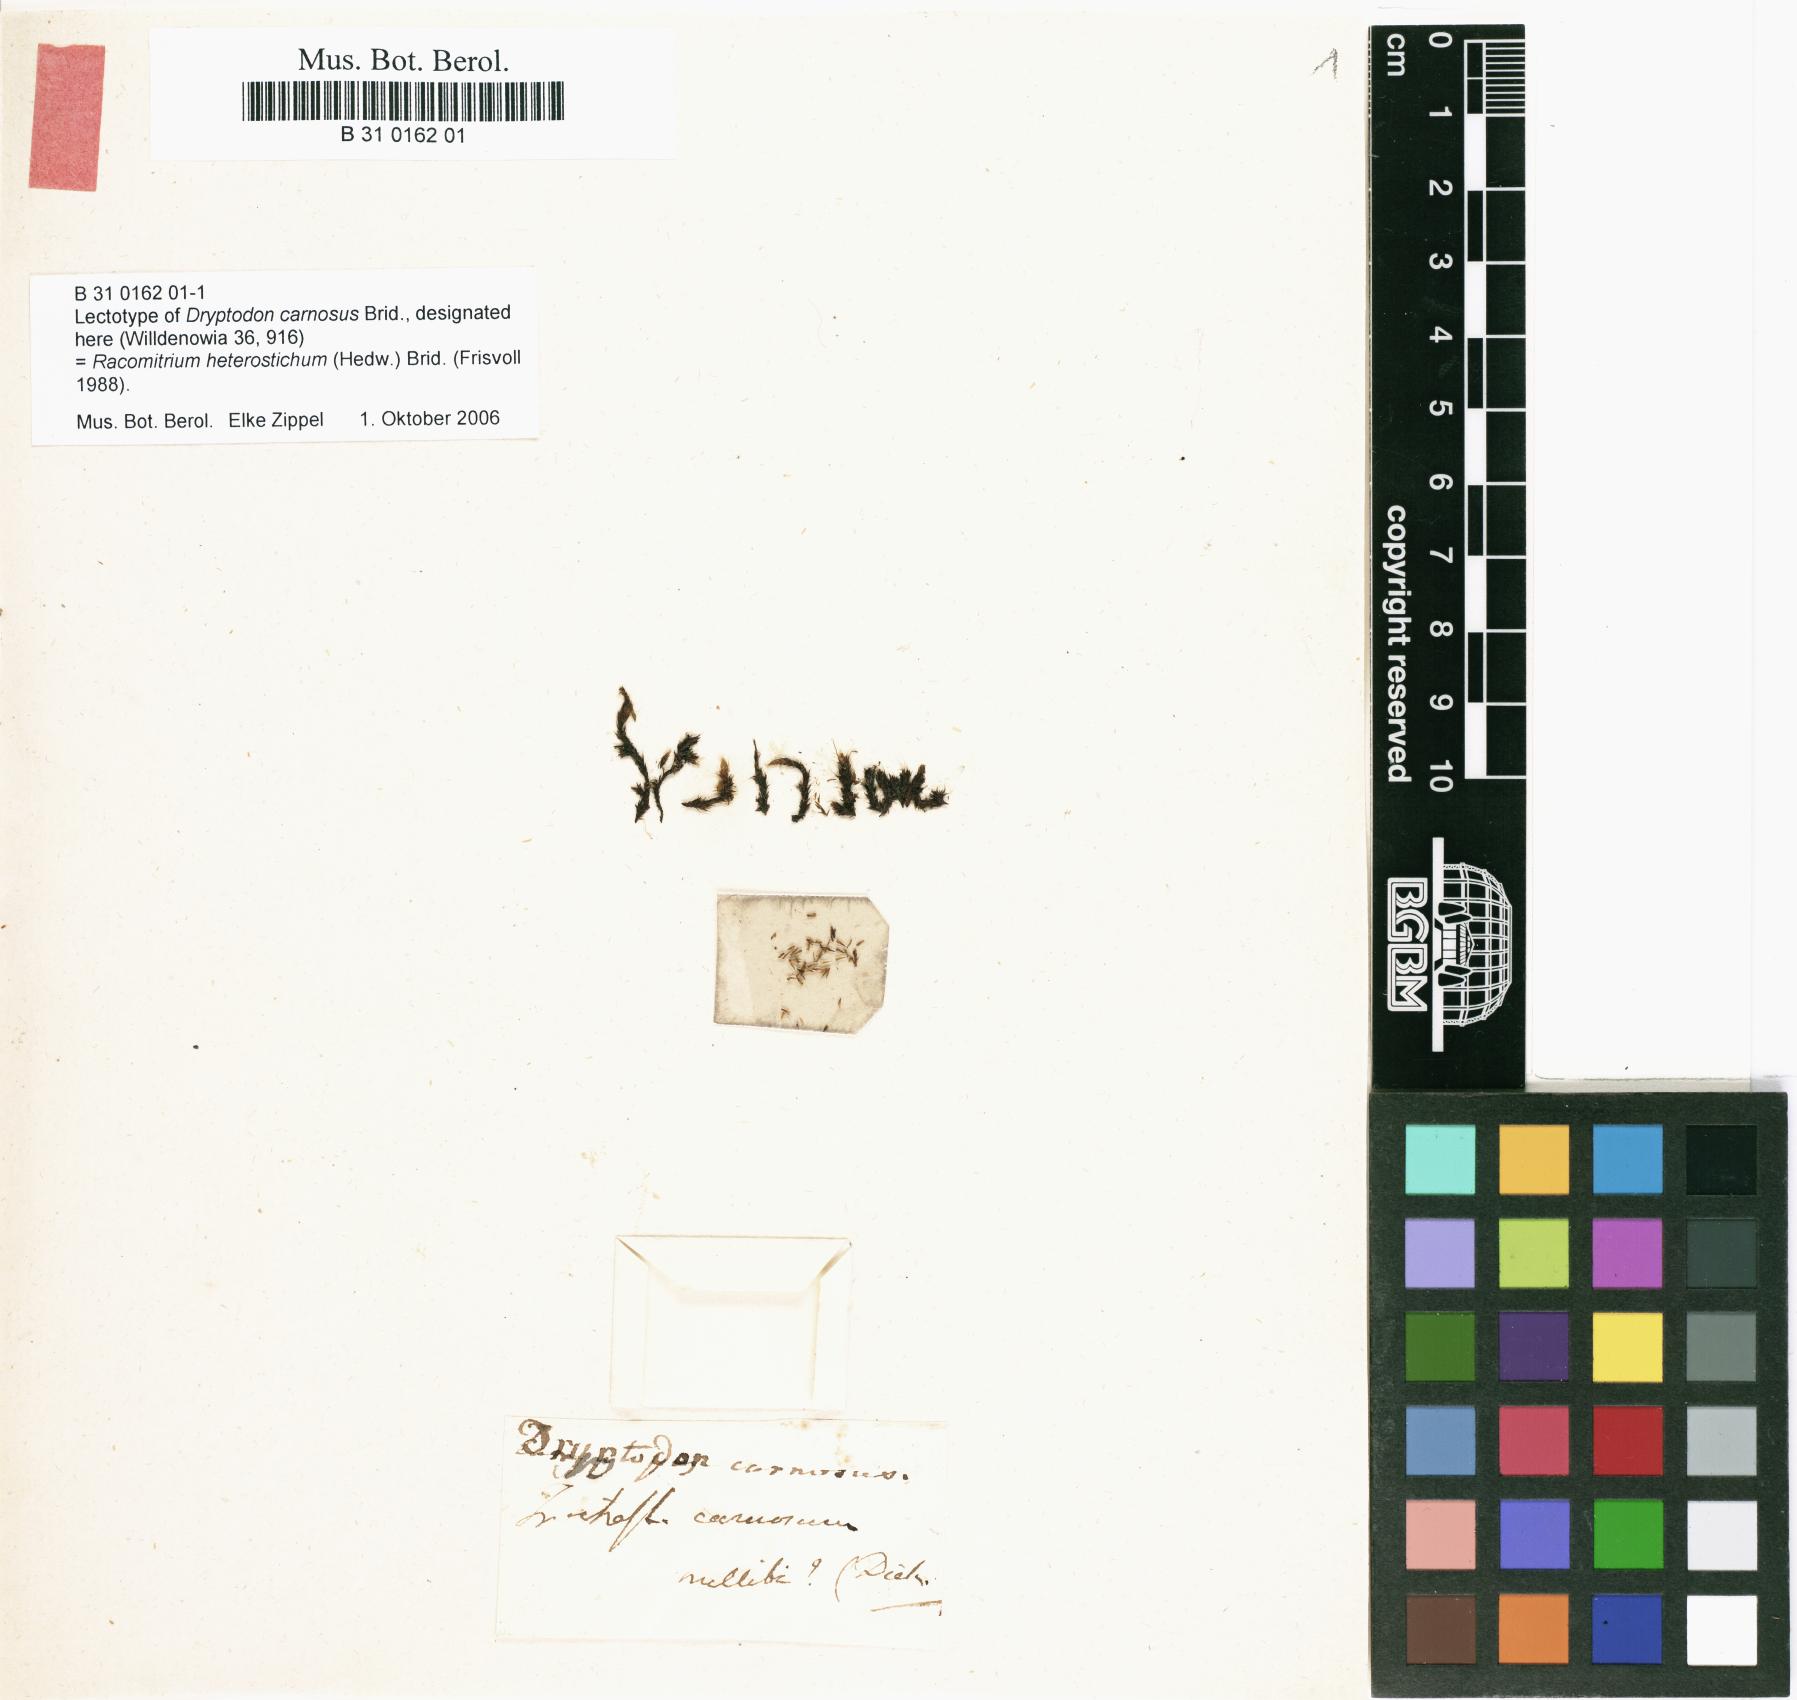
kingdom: Plantae
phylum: Bryophyta
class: Bryopsida
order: Grimmiales
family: Grimmiaceae
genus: Bucklandiella
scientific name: Bucklandiella heterosticha
